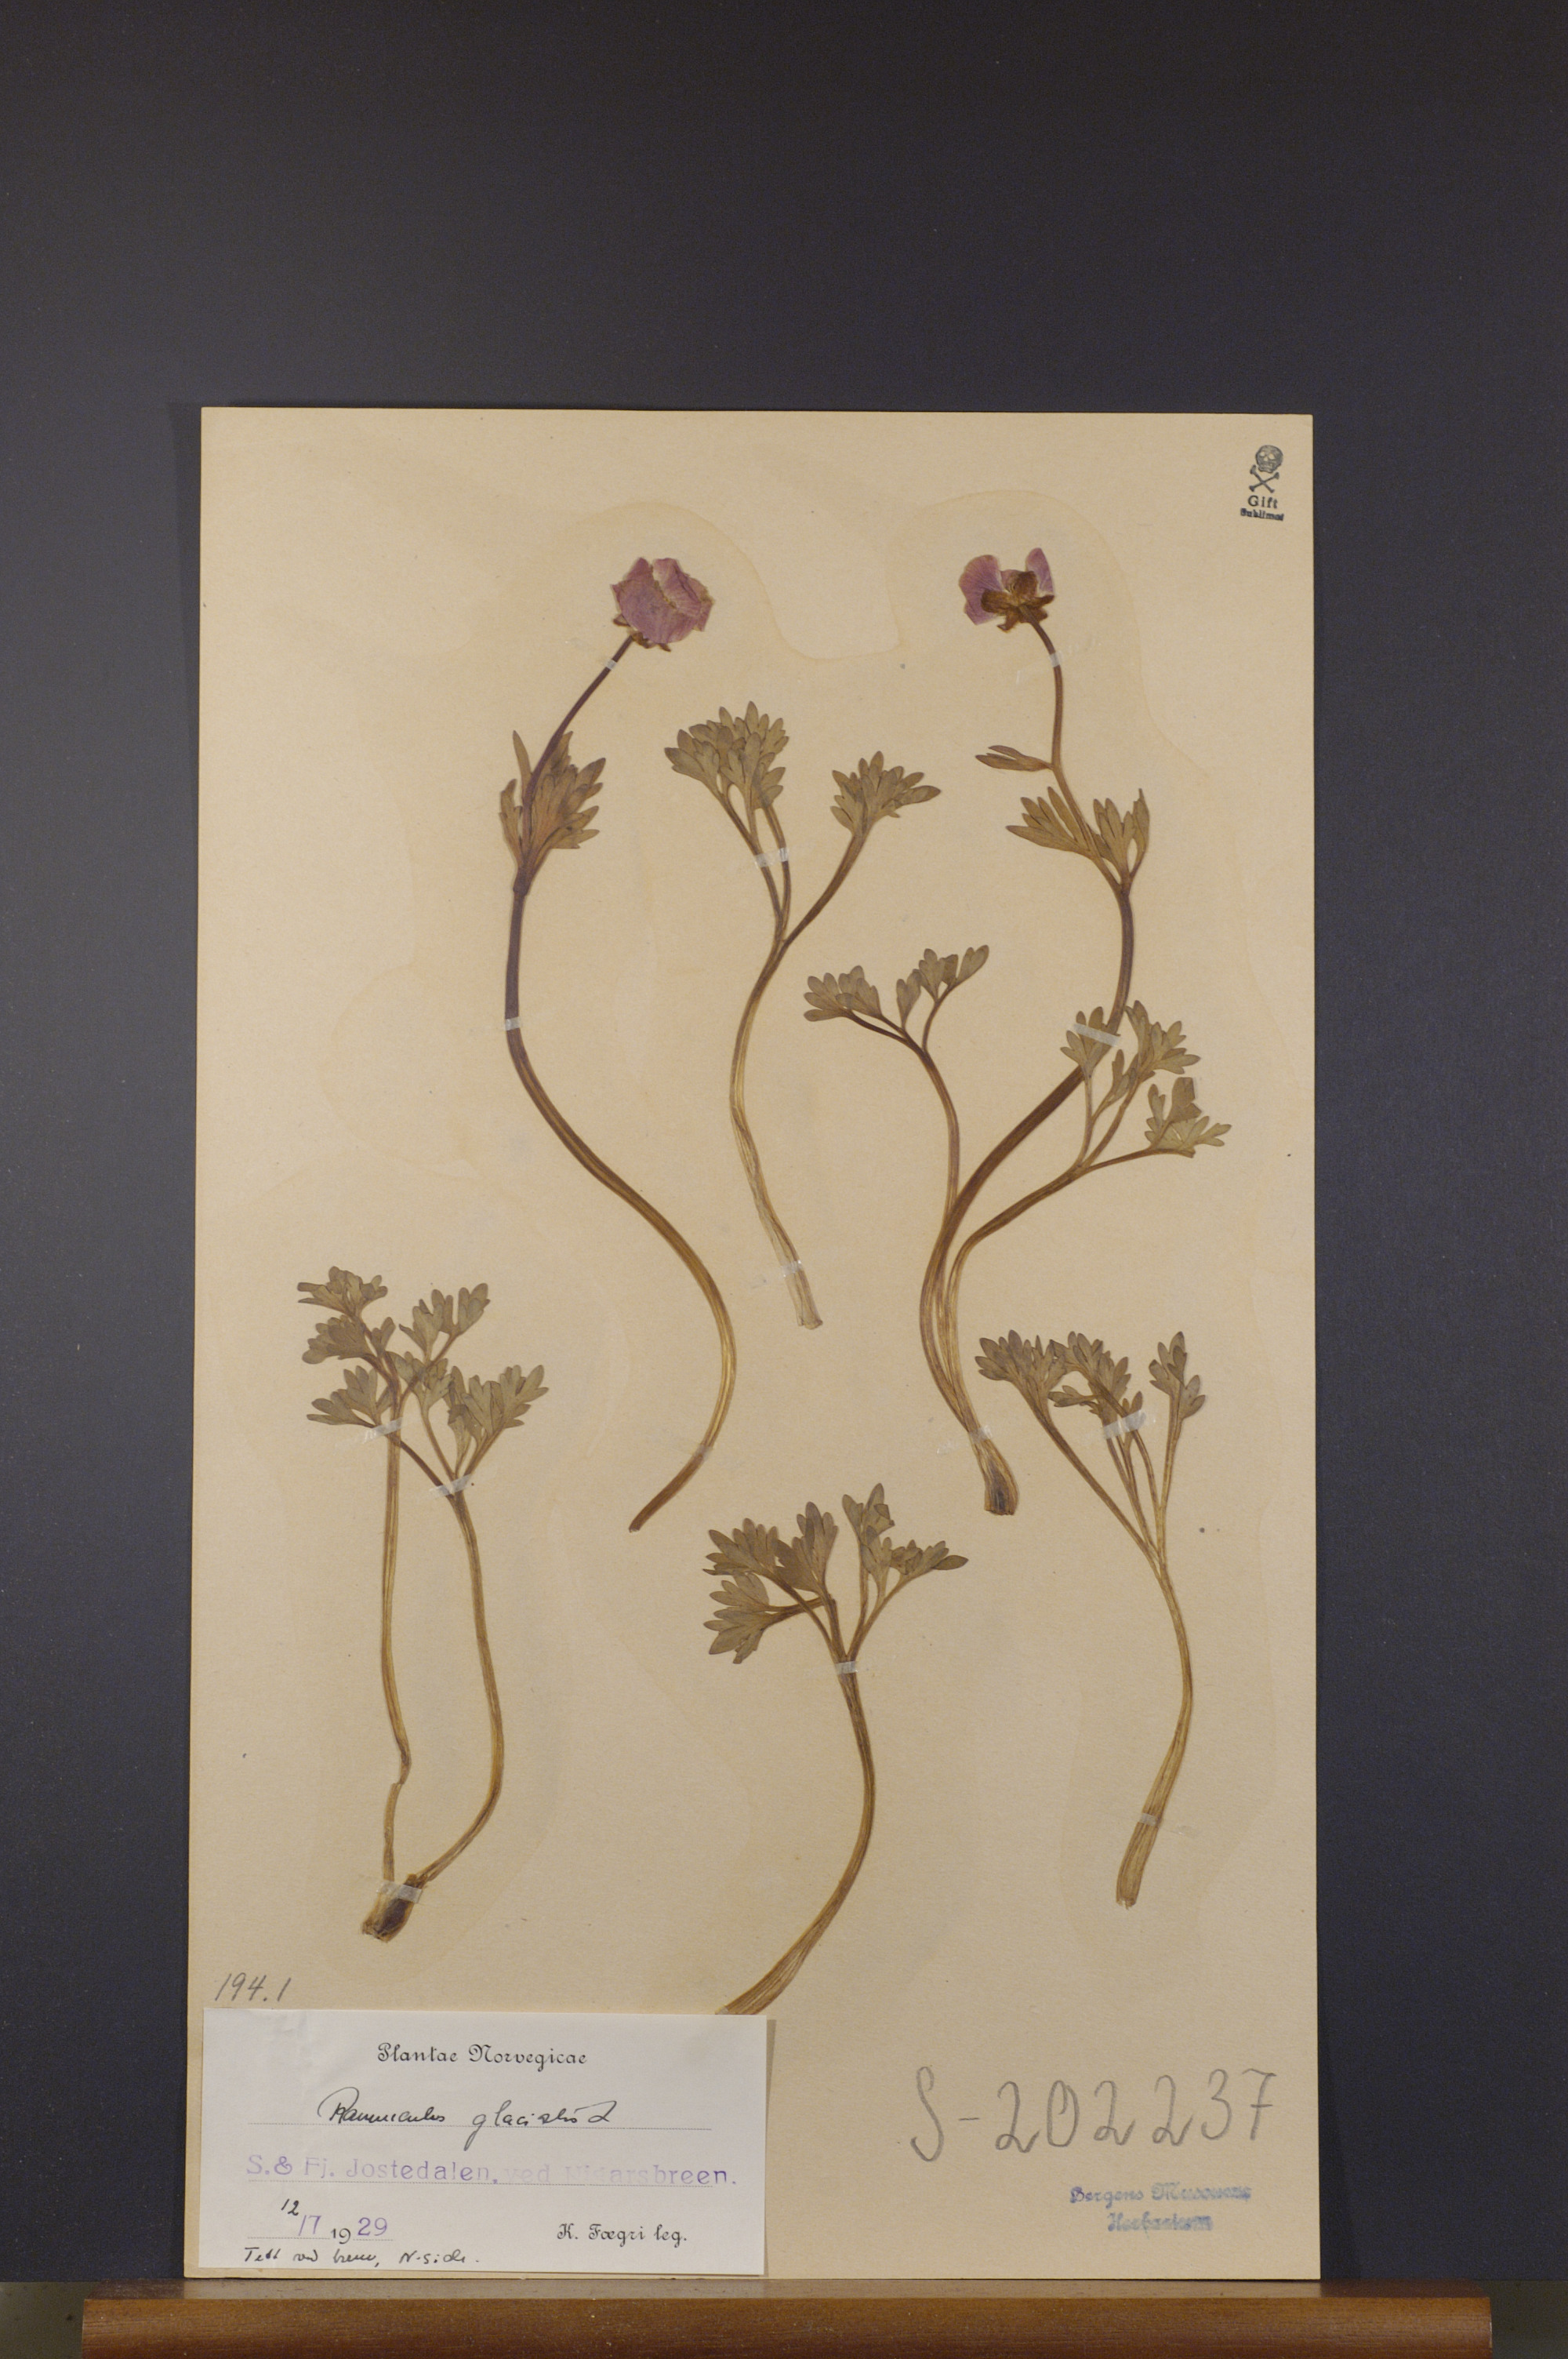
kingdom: Plantae
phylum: Tracheophyta
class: Magnoliopsida
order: Ranunculales
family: Ranunculaceae
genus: Ranunculus
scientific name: Ranunculus glacialis
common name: Glacier buttercup
